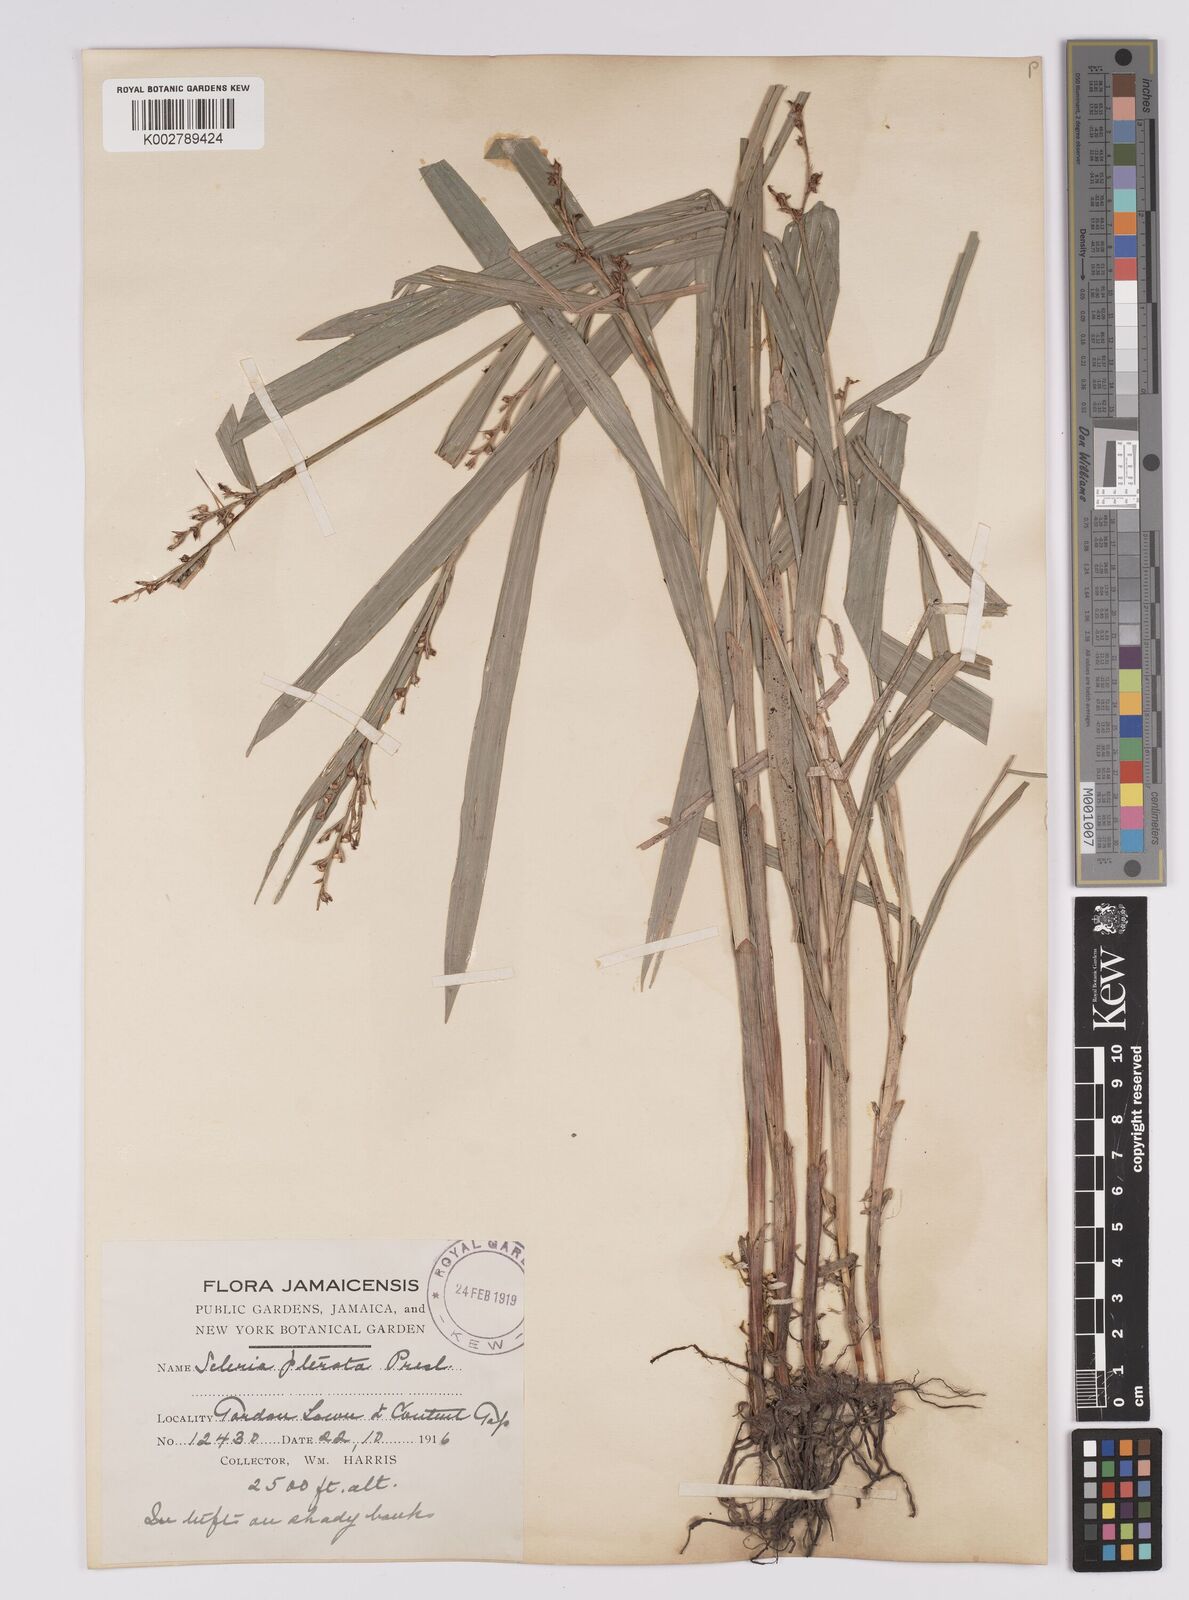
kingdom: Plantae
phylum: Tracheophyta
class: Liliopsida
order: Poales
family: Cyperaceae
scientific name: Cyperaceae
